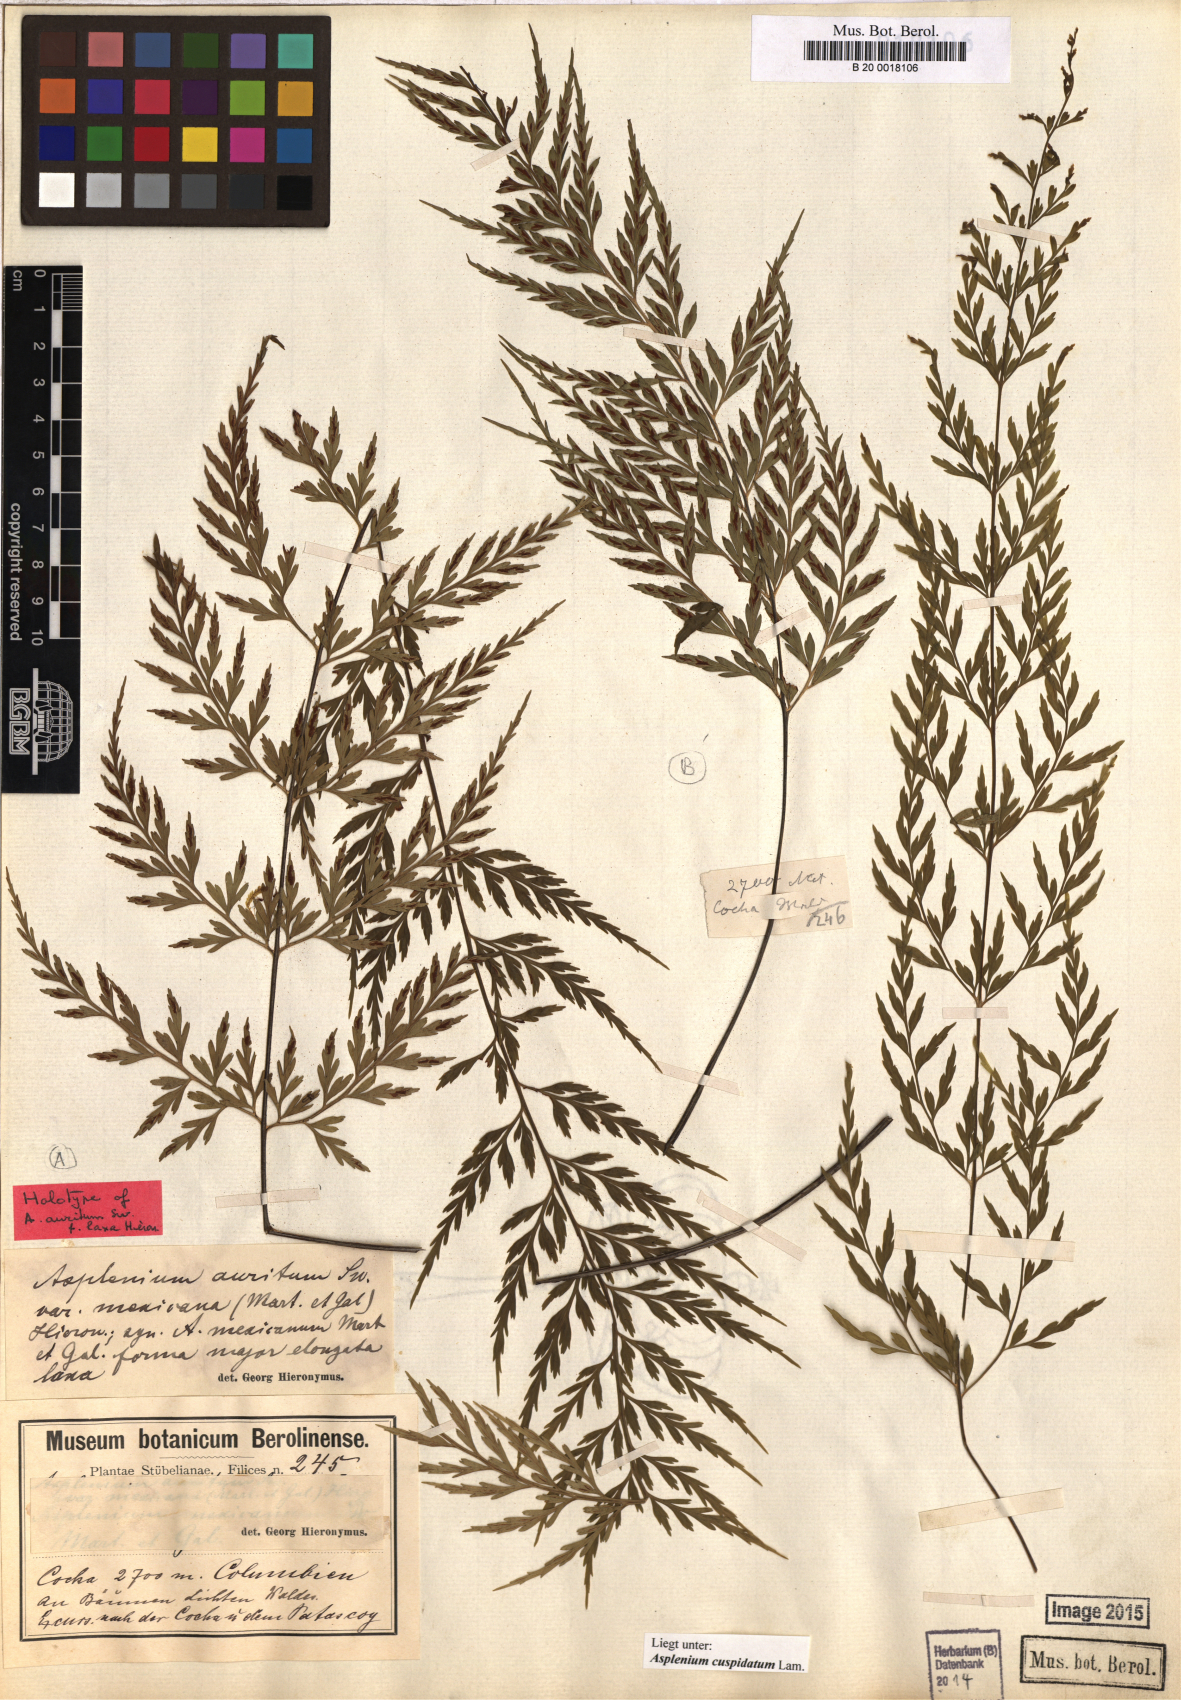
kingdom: Plantae
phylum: Tracheophyta
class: Polypodiopsida
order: Polypodiales
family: Aspleniaceae
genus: Asplenium
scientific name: Asplenium cuspidatum
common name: Eared spleenwort
